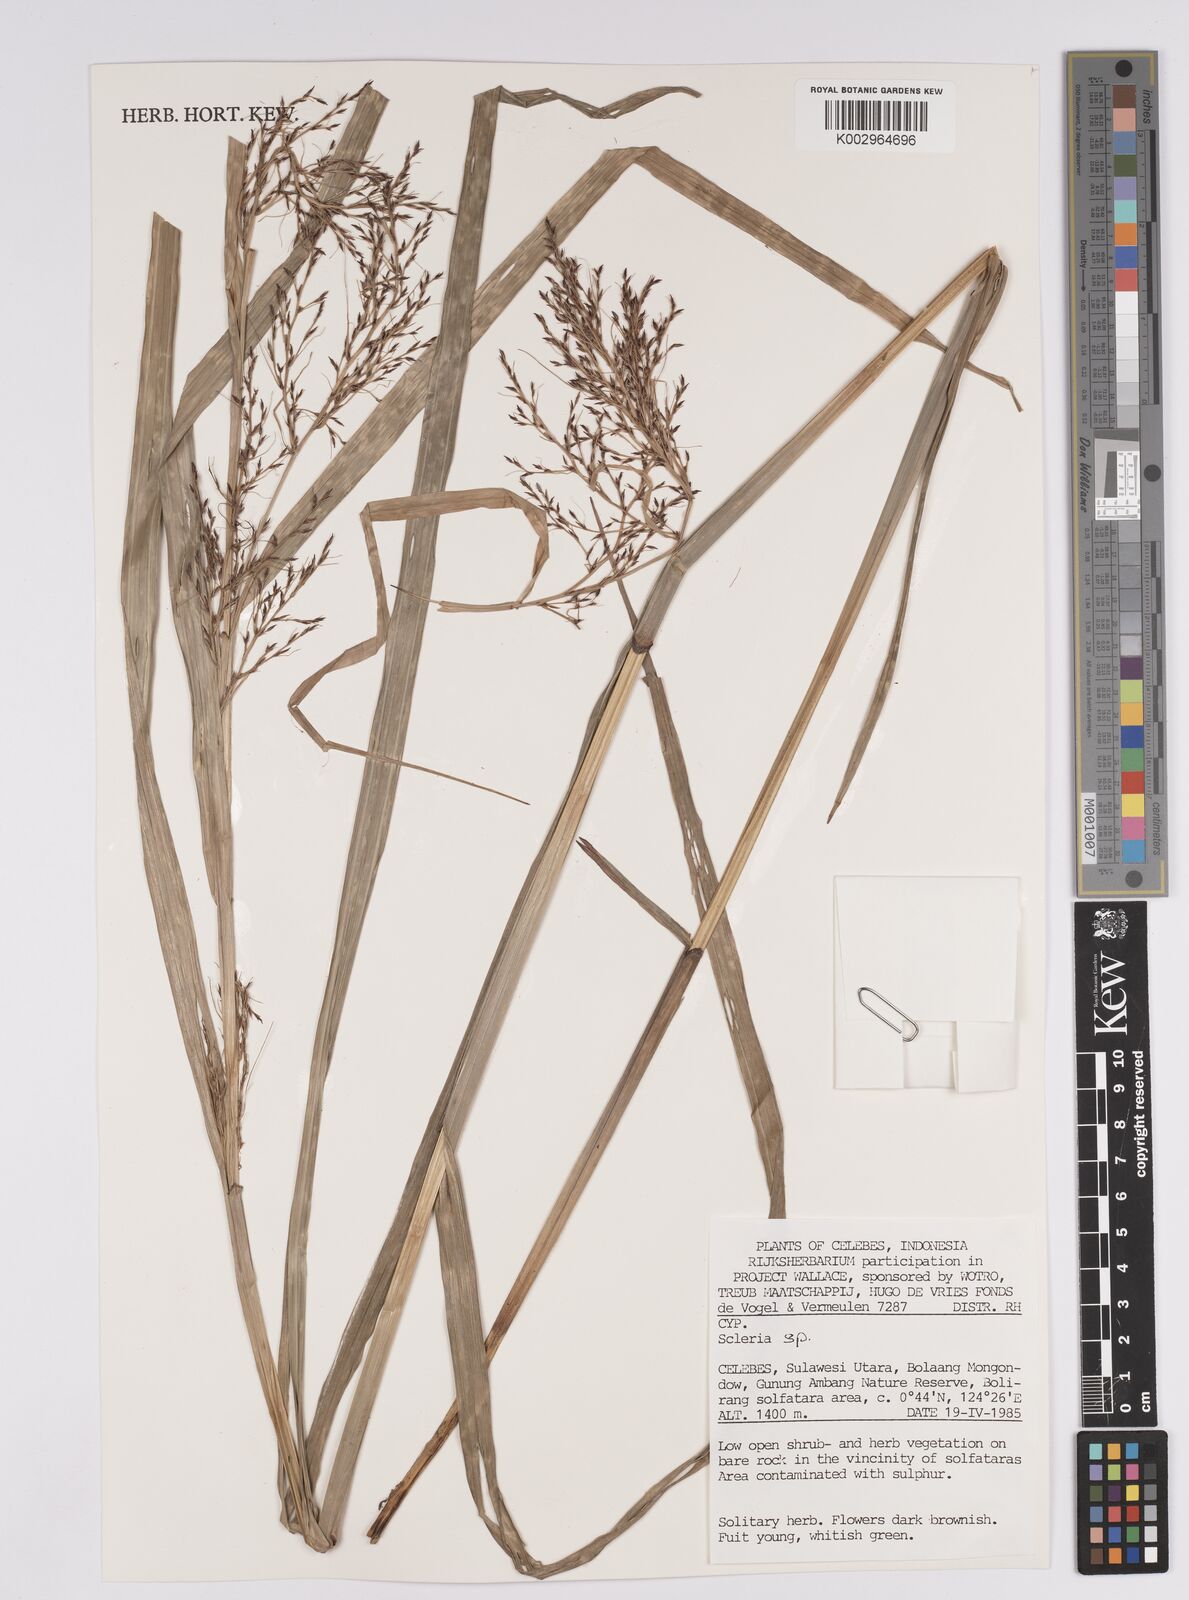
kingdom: Plantae
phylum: Tracheophyta
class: Liliopsida
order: Poales
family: Cyperaceae
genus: Scleria
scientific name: Scleria
